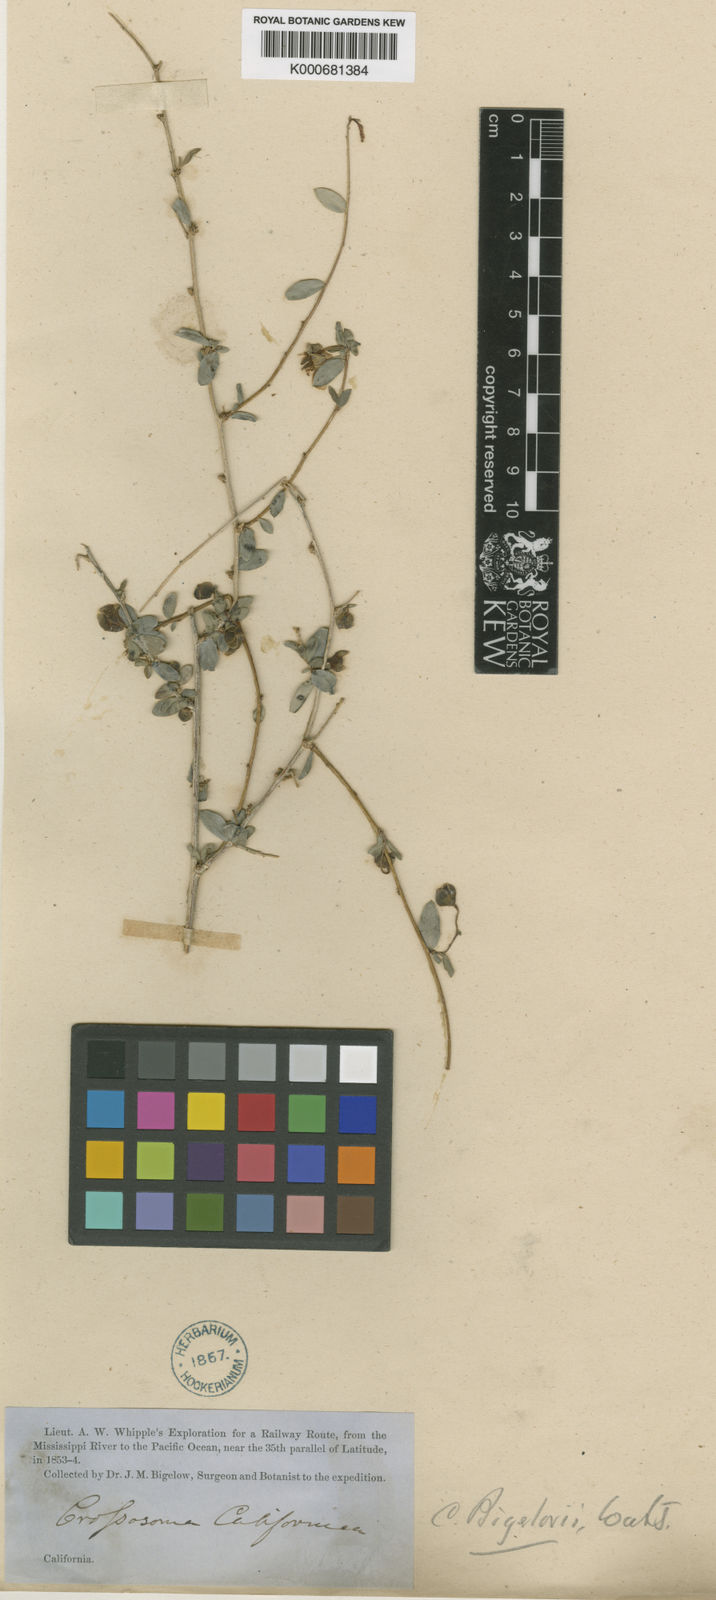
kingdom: Plantae
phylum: Tracheophyta
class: Magnoliopsida
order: Crossosomatales
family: Crossosomataceae
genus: Crossosoma
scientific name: Crossosoma bigelovii
